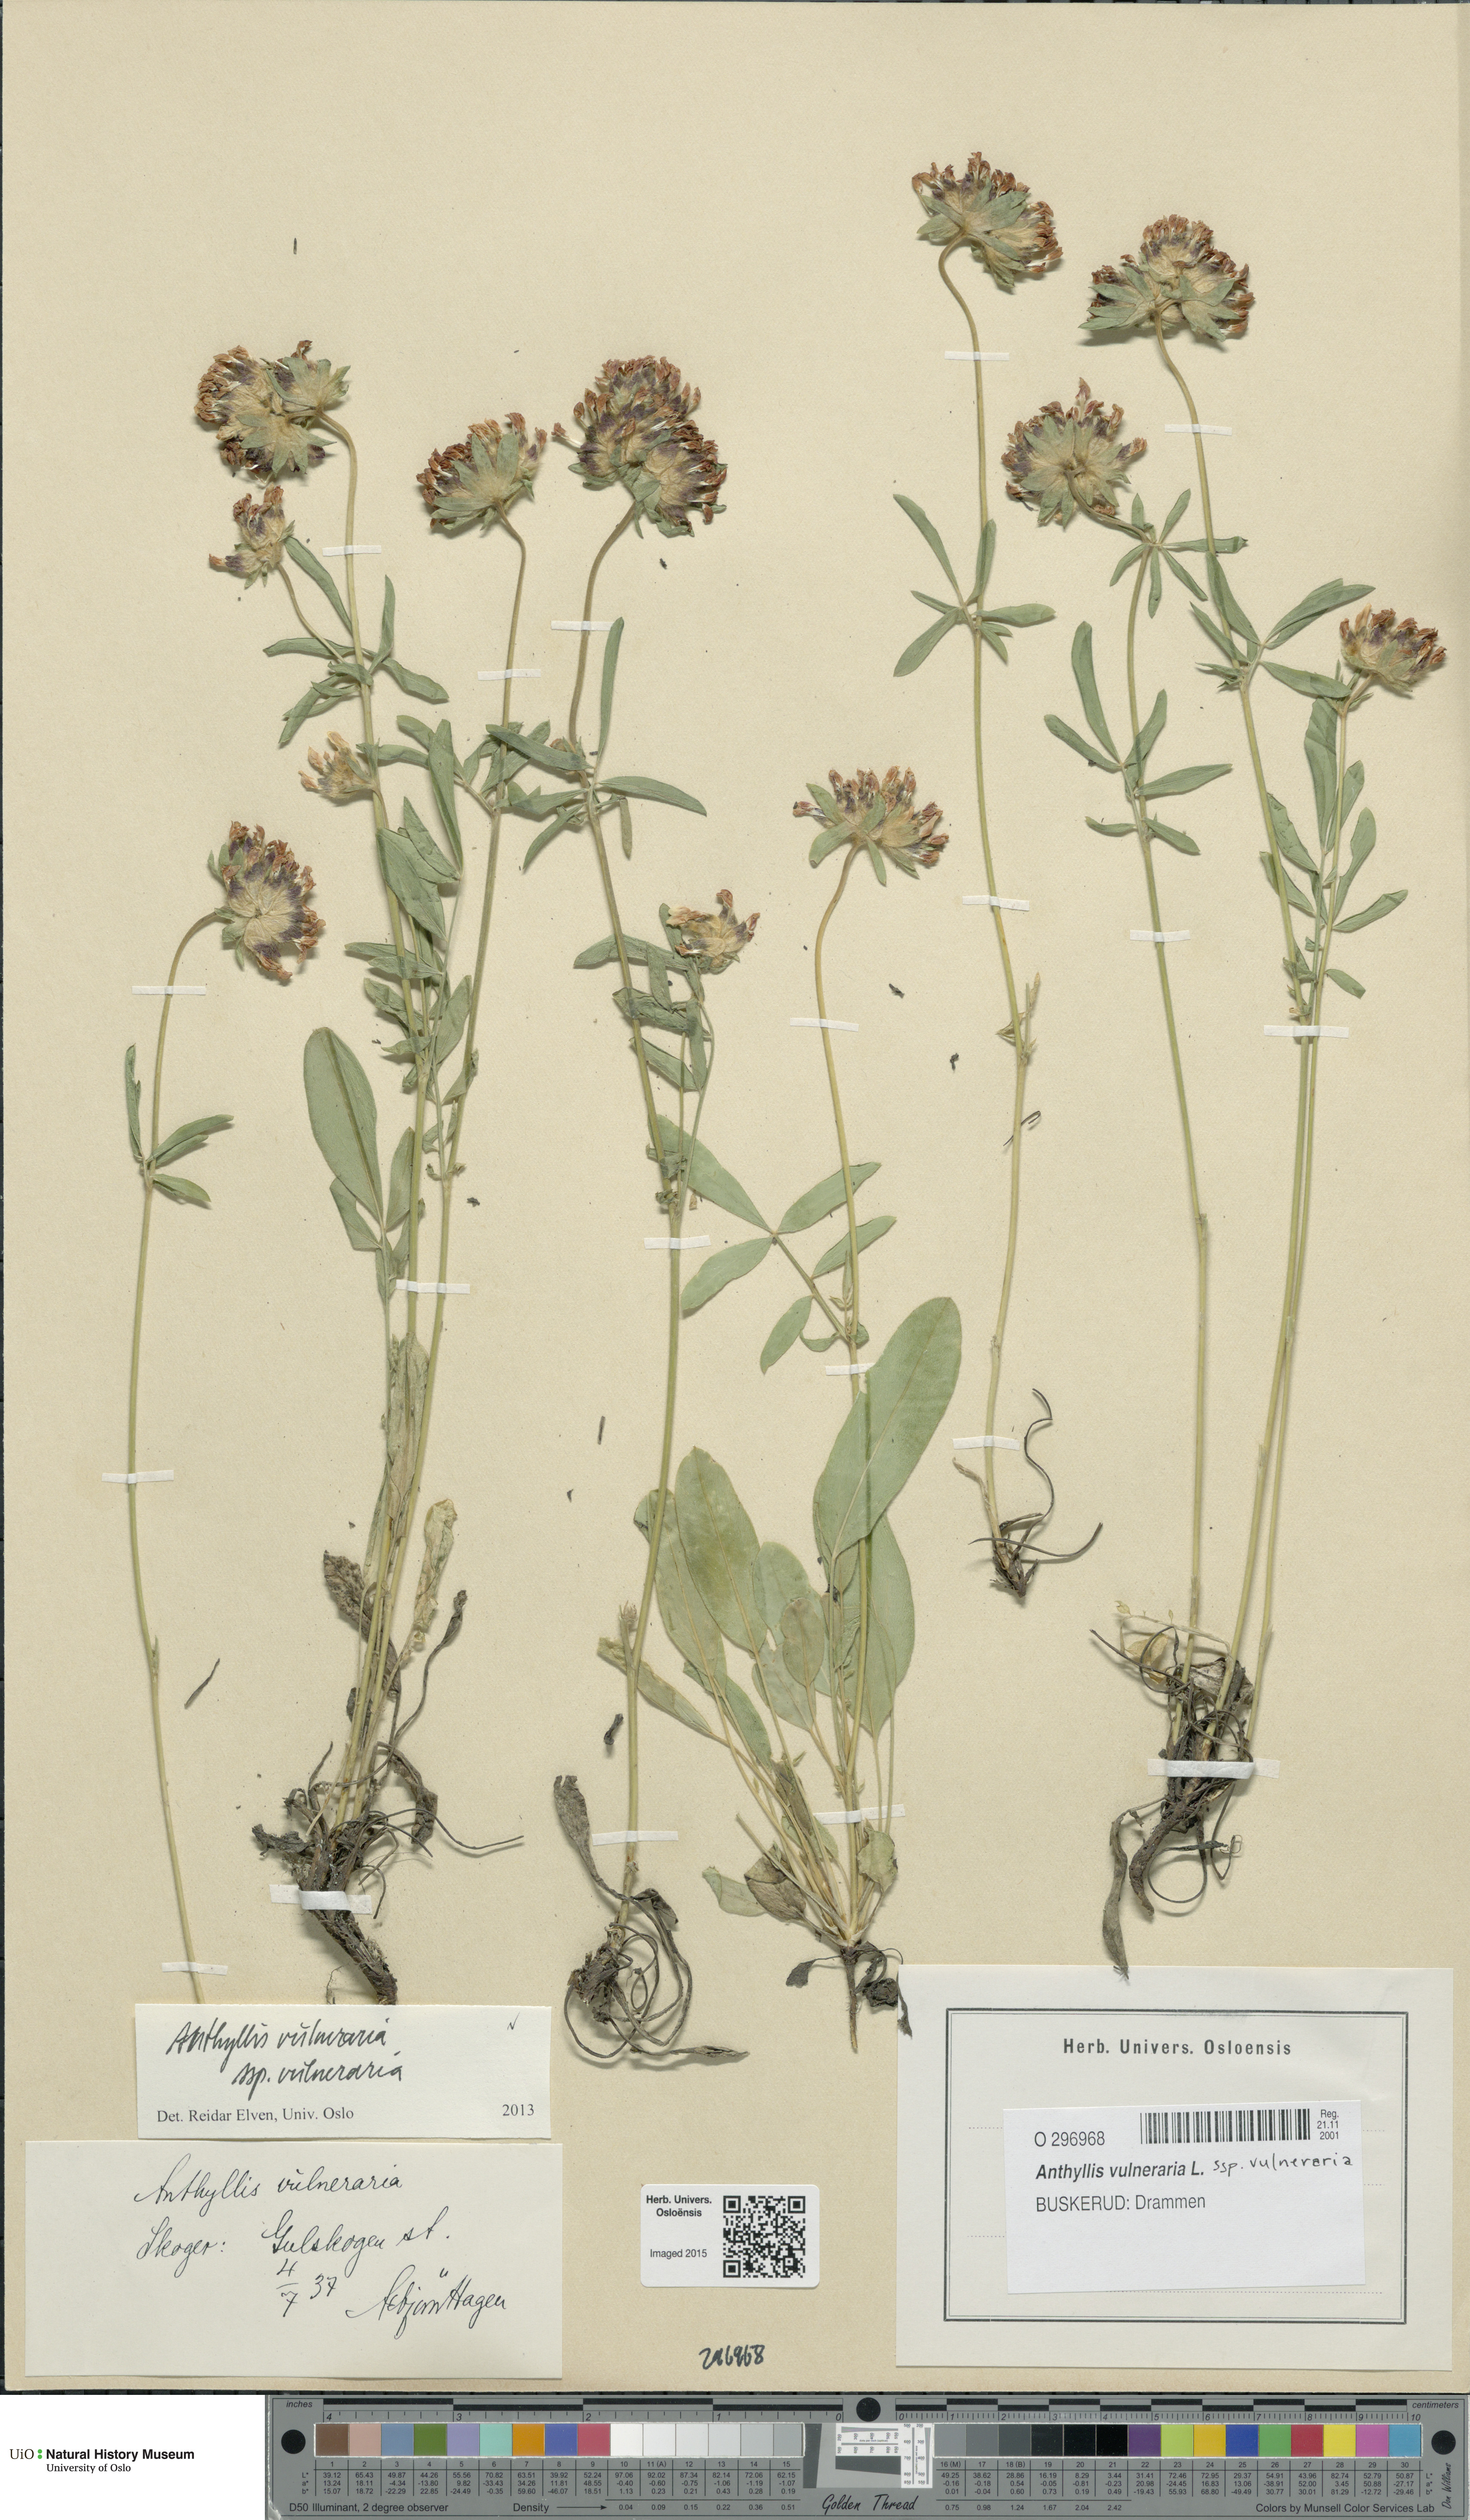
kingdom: Plantae
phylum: Tracheophyta
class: Magnoliopsida
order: Fabales
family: Fabaceae
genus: Anthyllis
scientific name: Anthyllis vulneraria
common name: Kidney vetch
